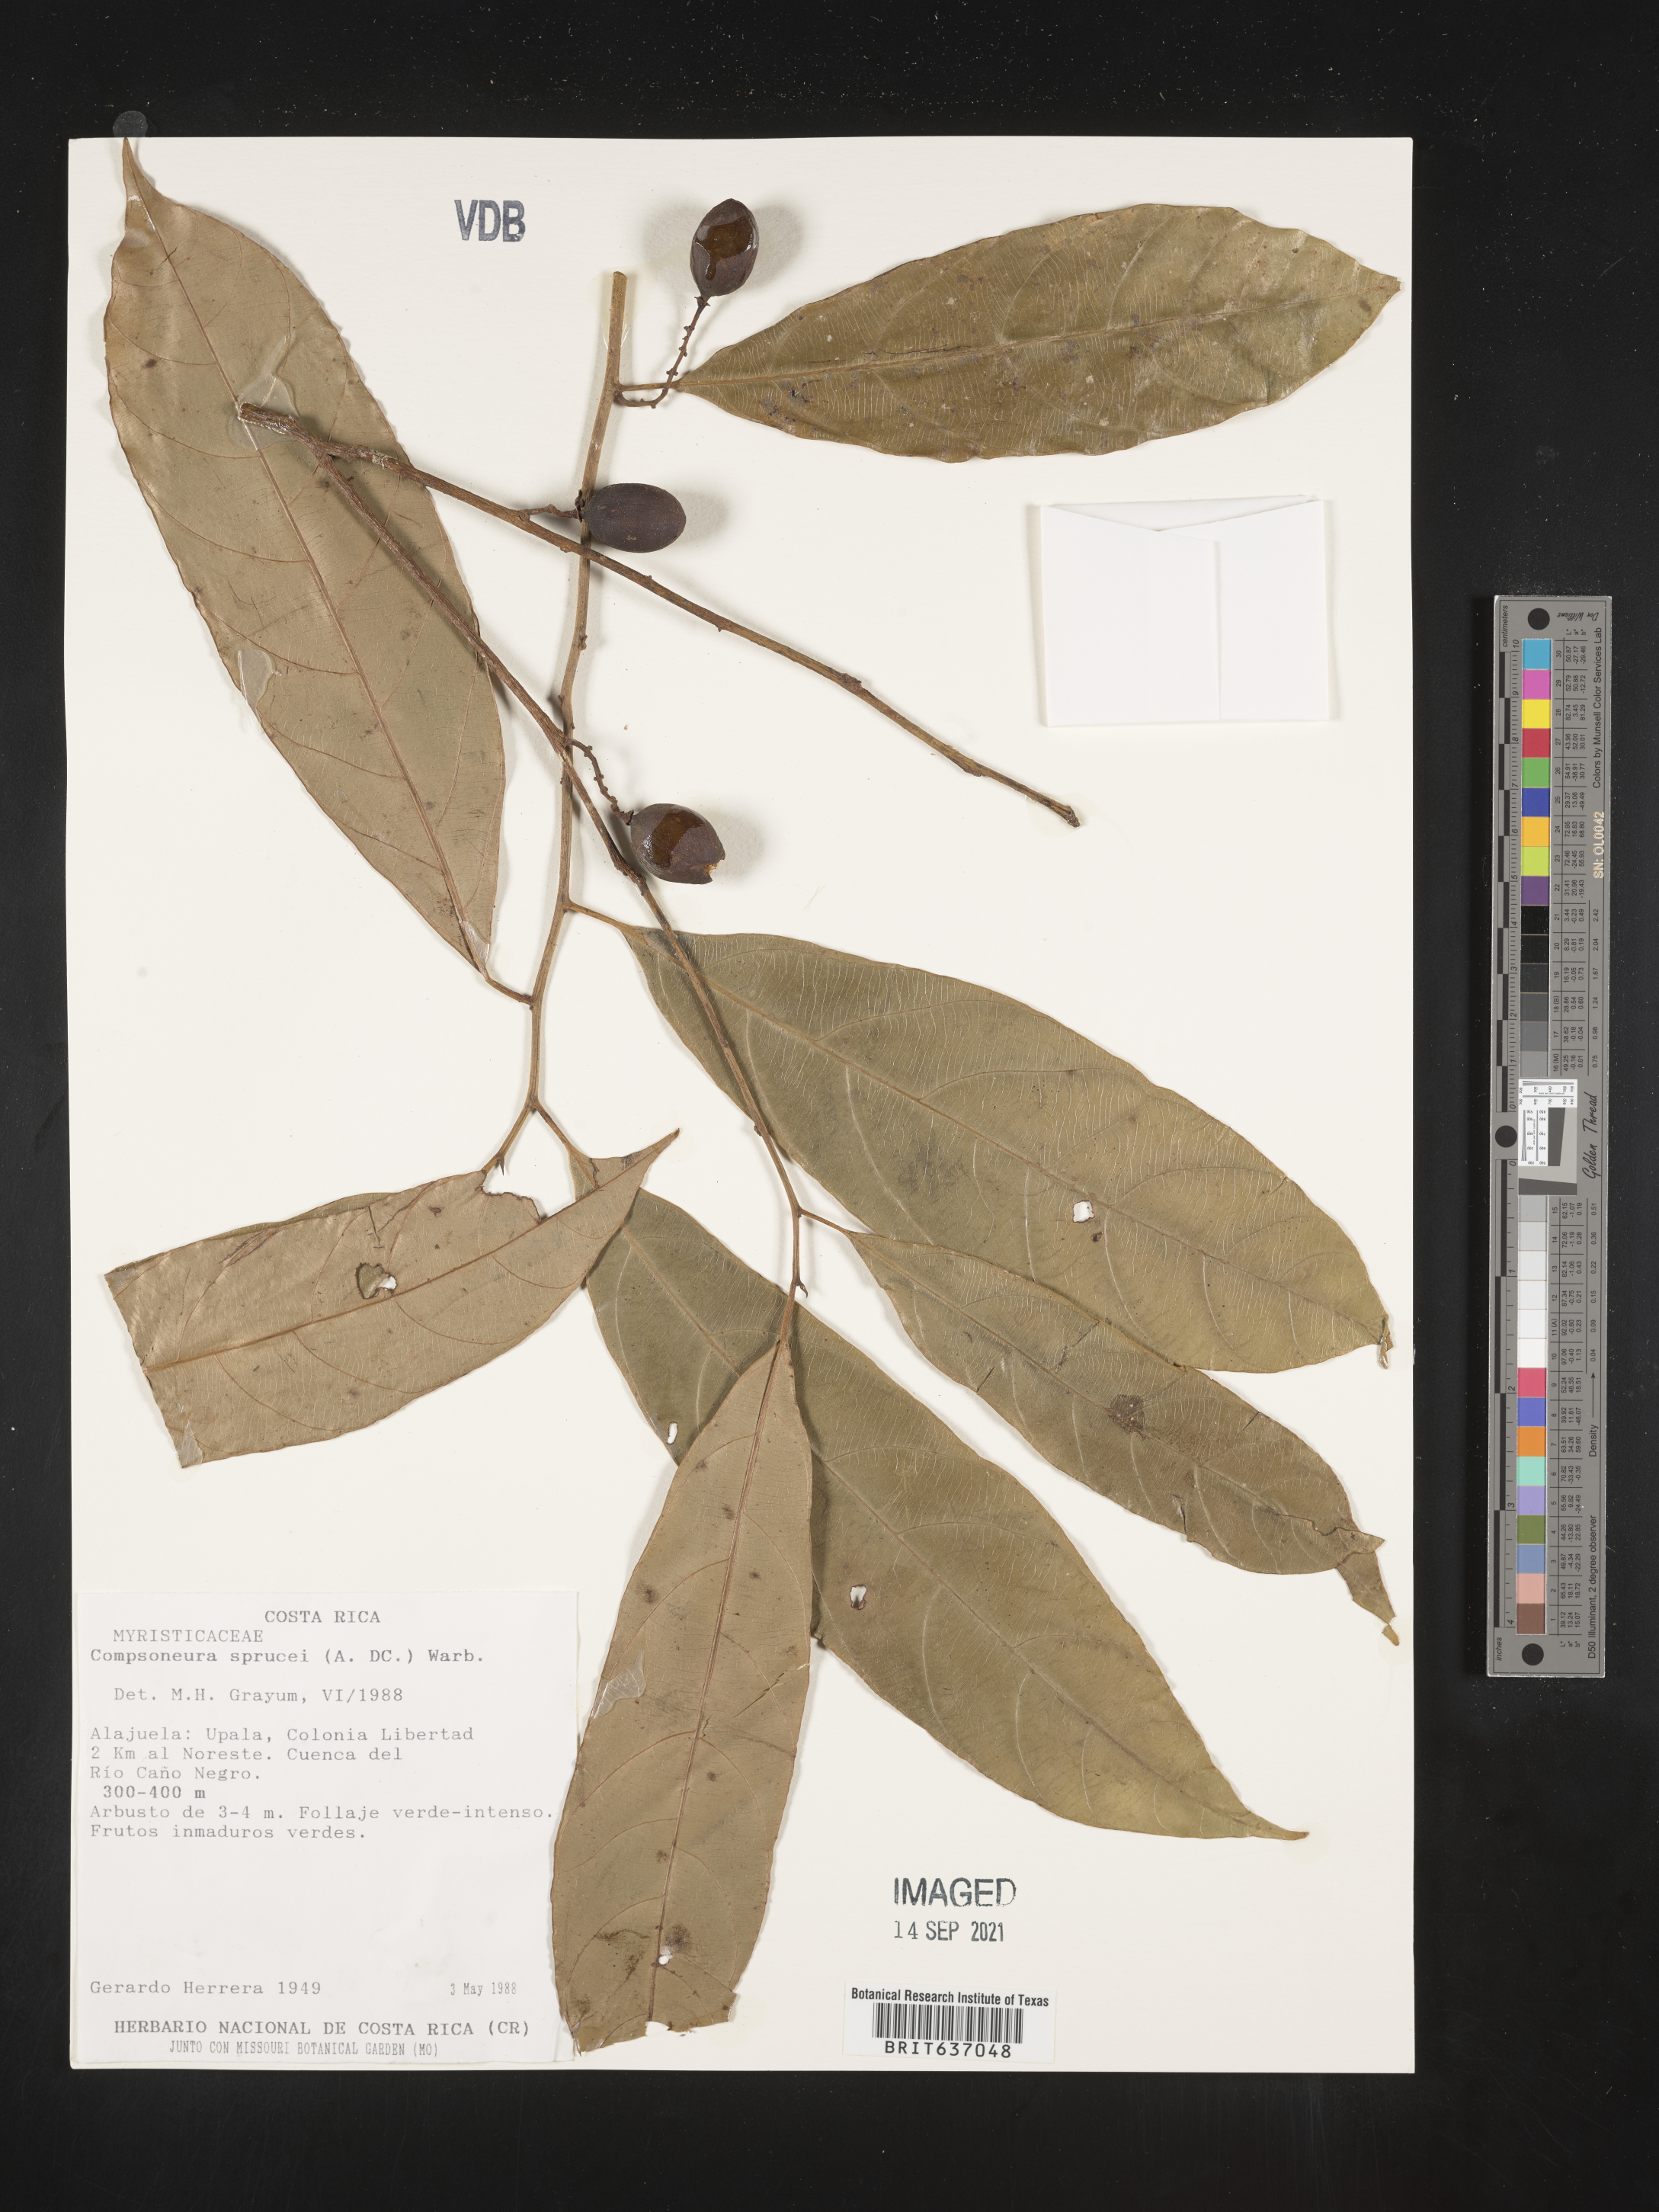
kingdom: Plantae
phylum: Tracheophyta
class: Magnoliopsida
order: Magnoliales
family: Myristicaceae
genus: Compsoneura
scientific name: Compsoneura
